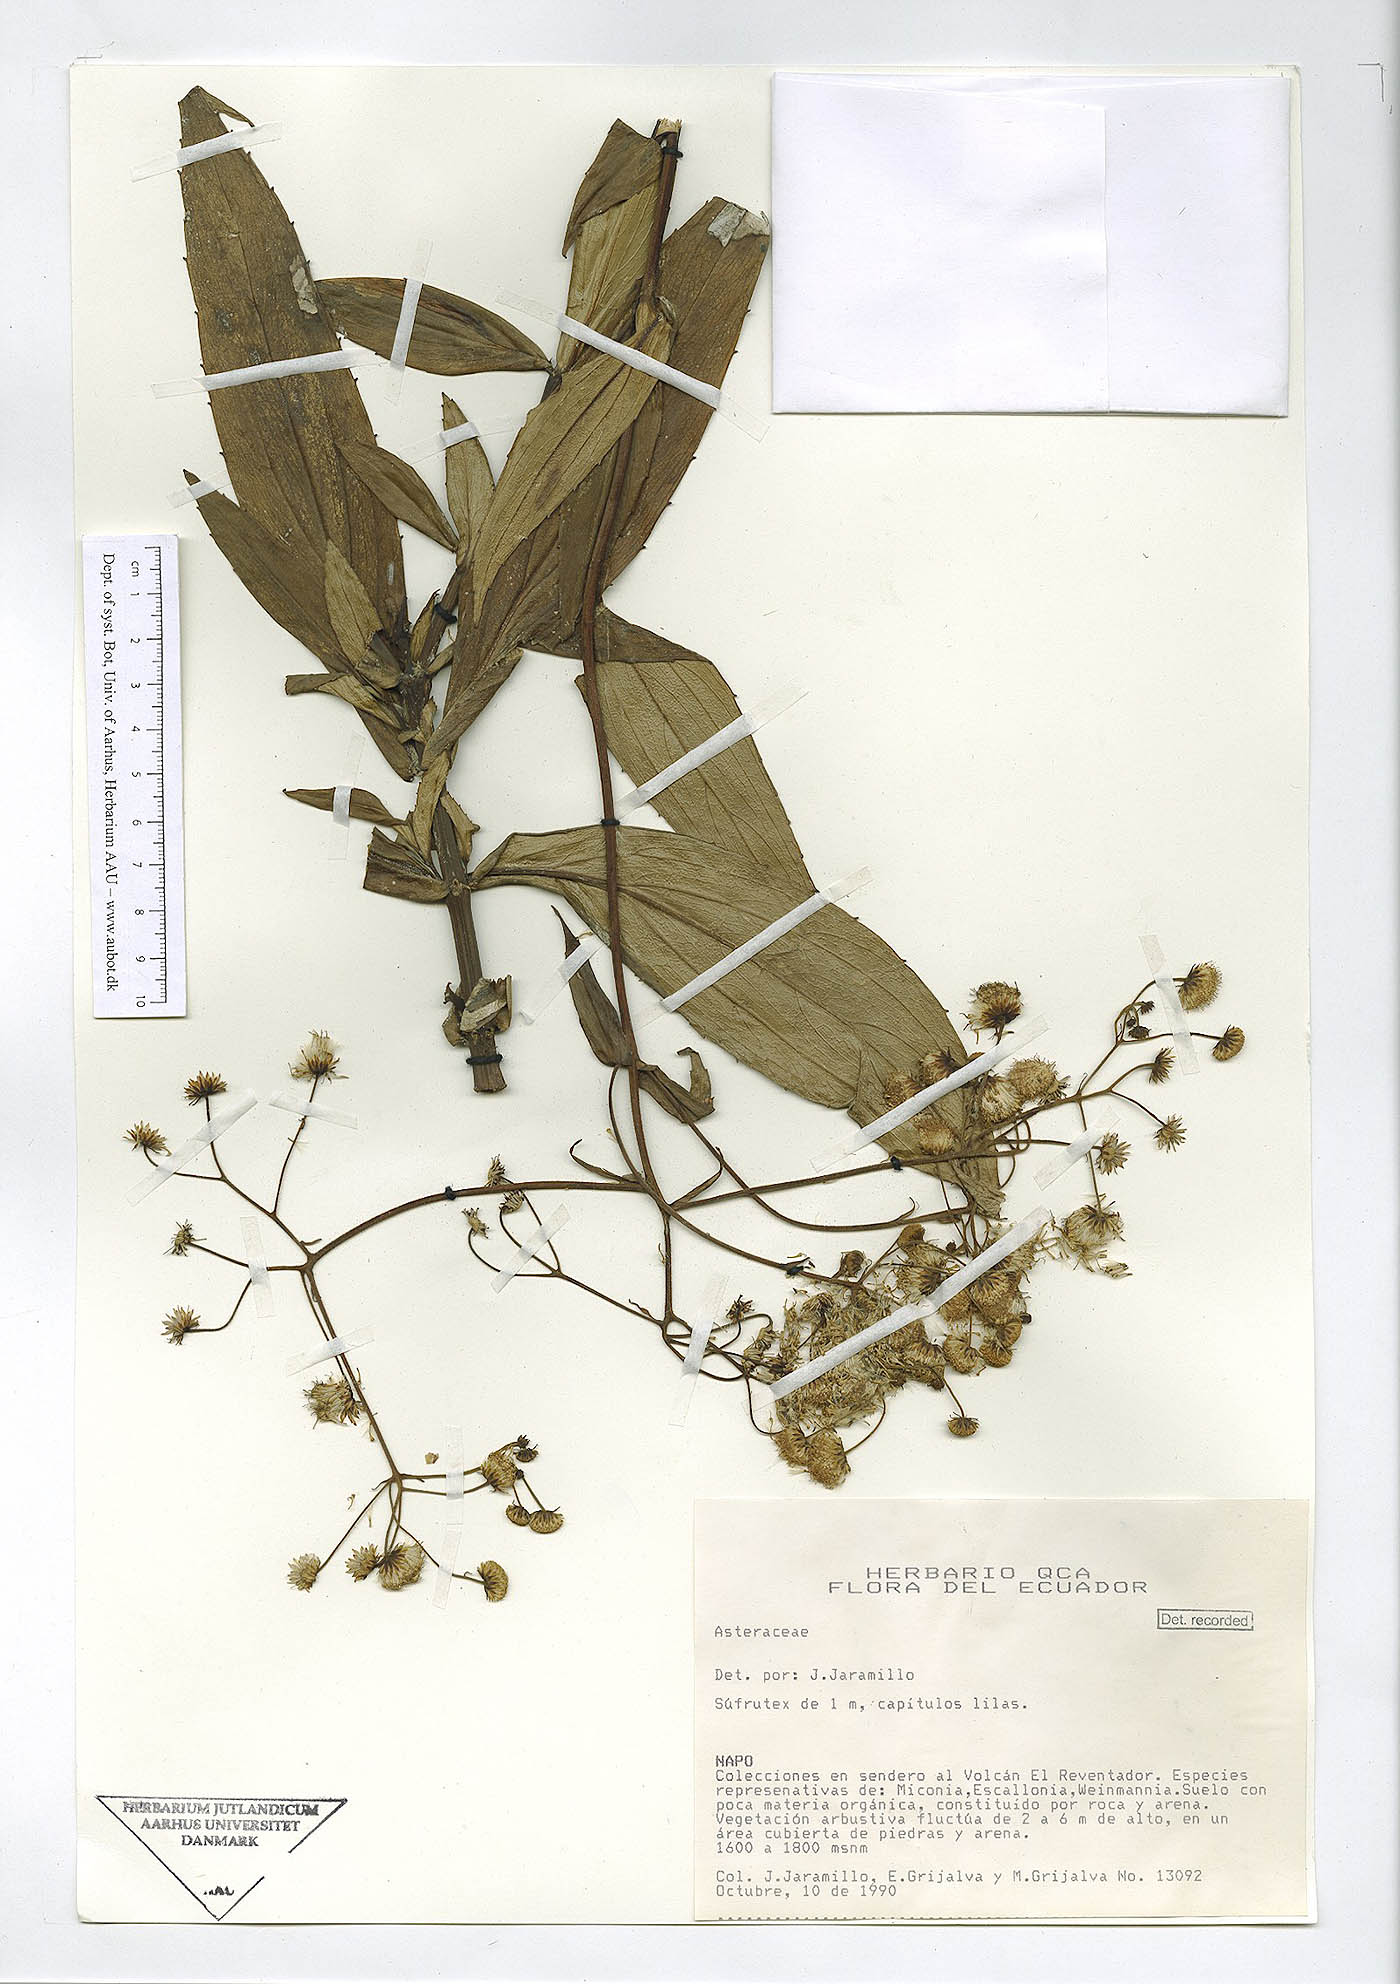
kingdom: Plantae
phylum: Tracheophyta
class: Magnoliopsida
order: Asterales
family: Asteraceae
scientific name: Asteraceae
